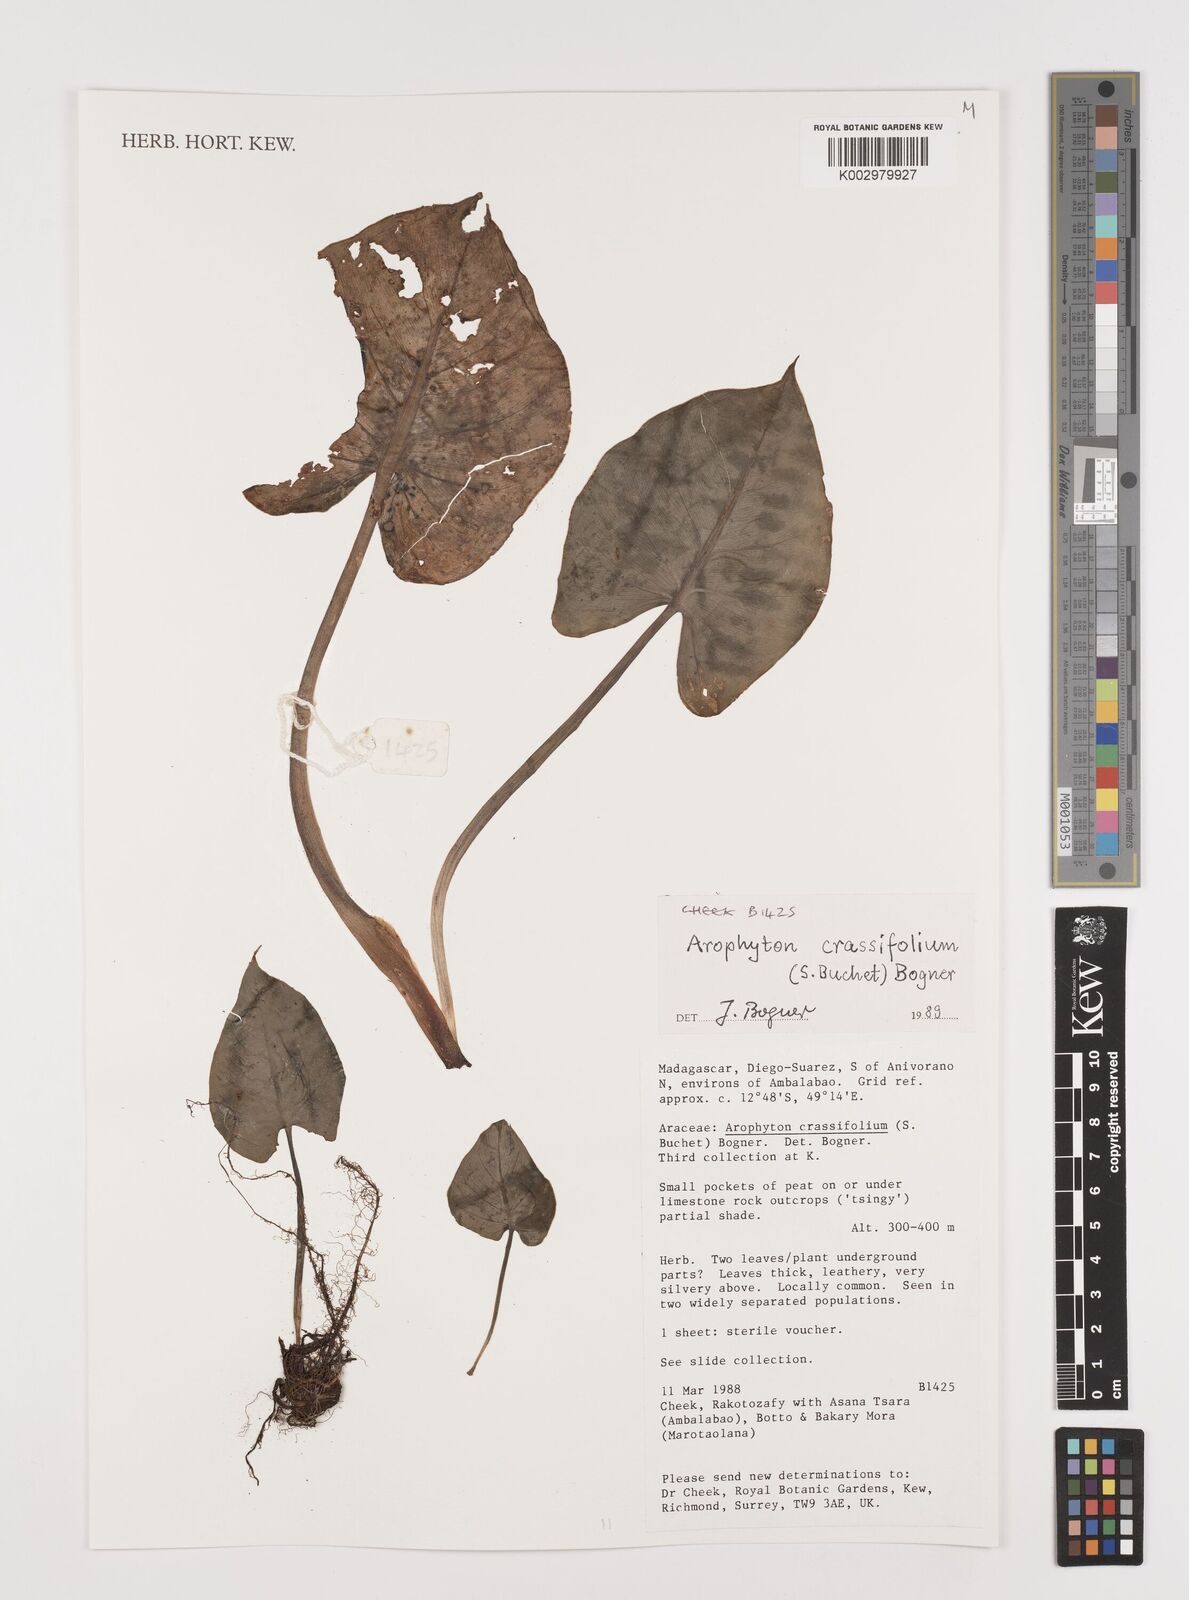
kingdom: Plantae
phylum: Tracheophyta
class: Liliopsida
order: Alismatales
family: Araceae
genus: Arophyton
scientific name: Arophyton crassifolium
